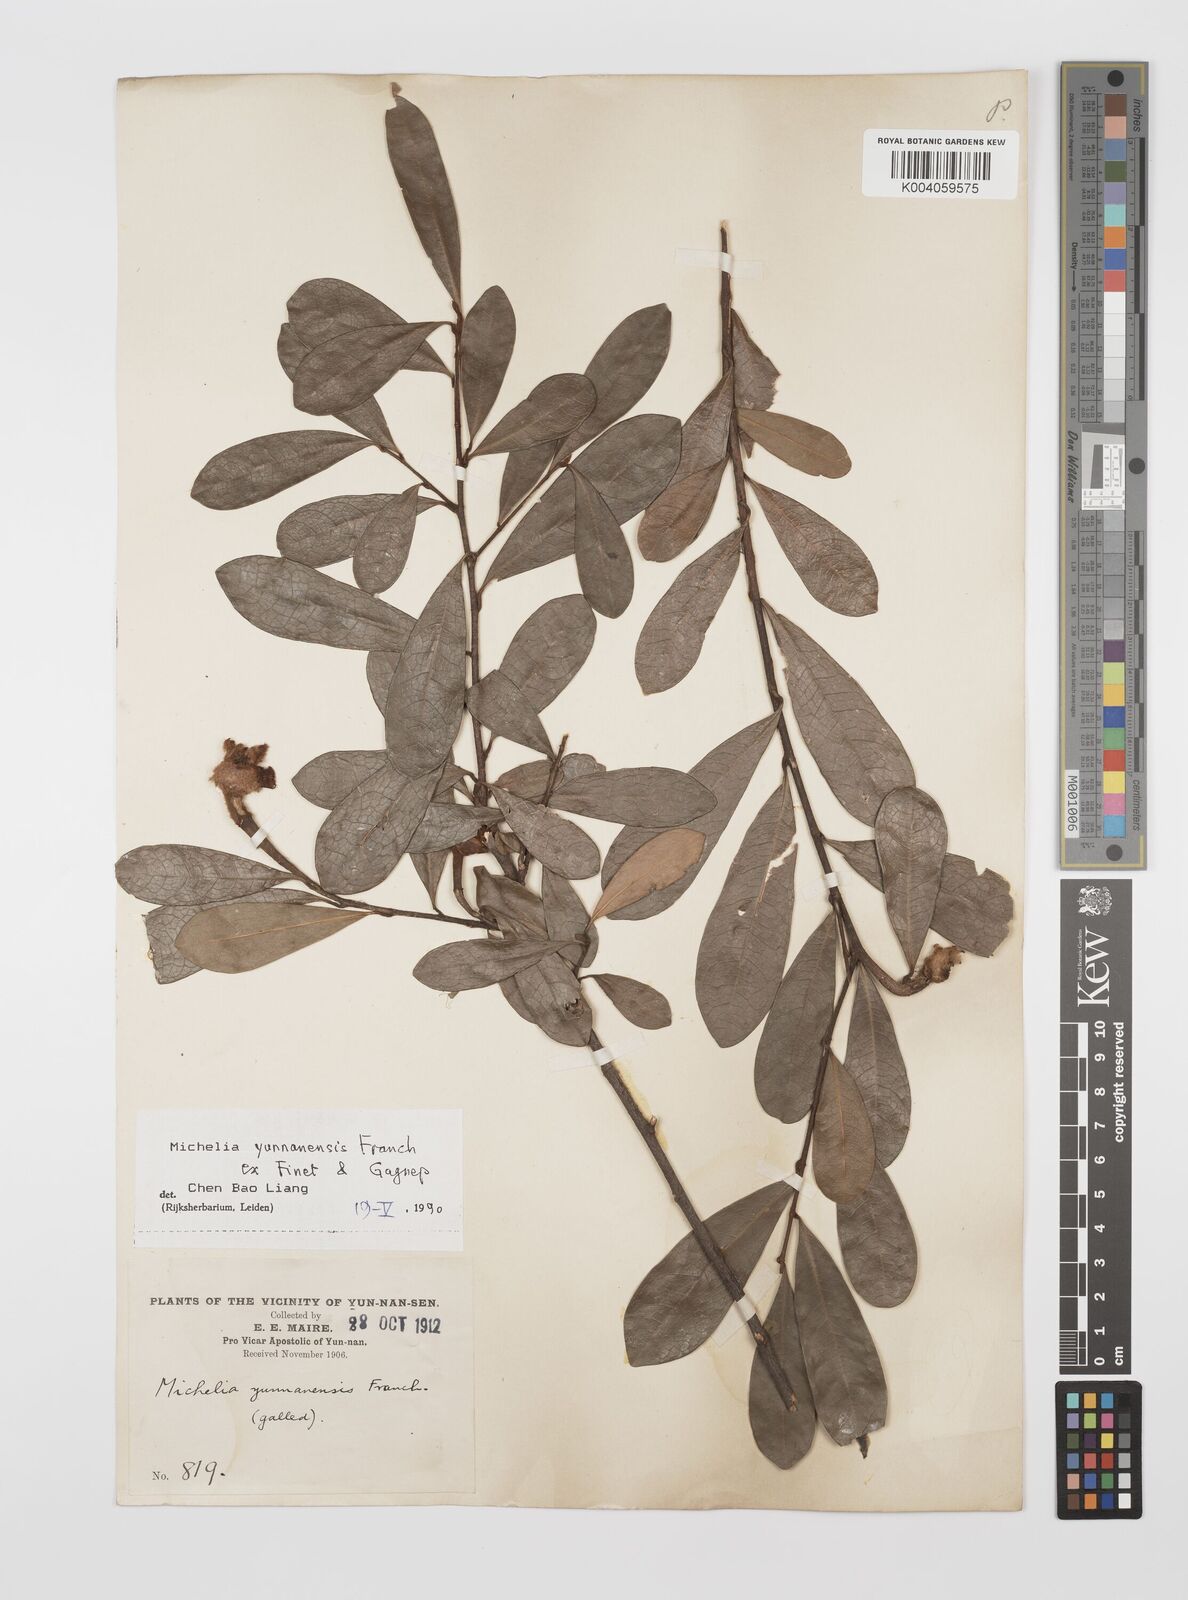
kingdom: Plantae
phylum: Tracheophyta
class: Magnoliopsida
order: Magnoliales
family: Magnoliaceae
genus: Magnolia
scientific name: Magnolia laevifolia
